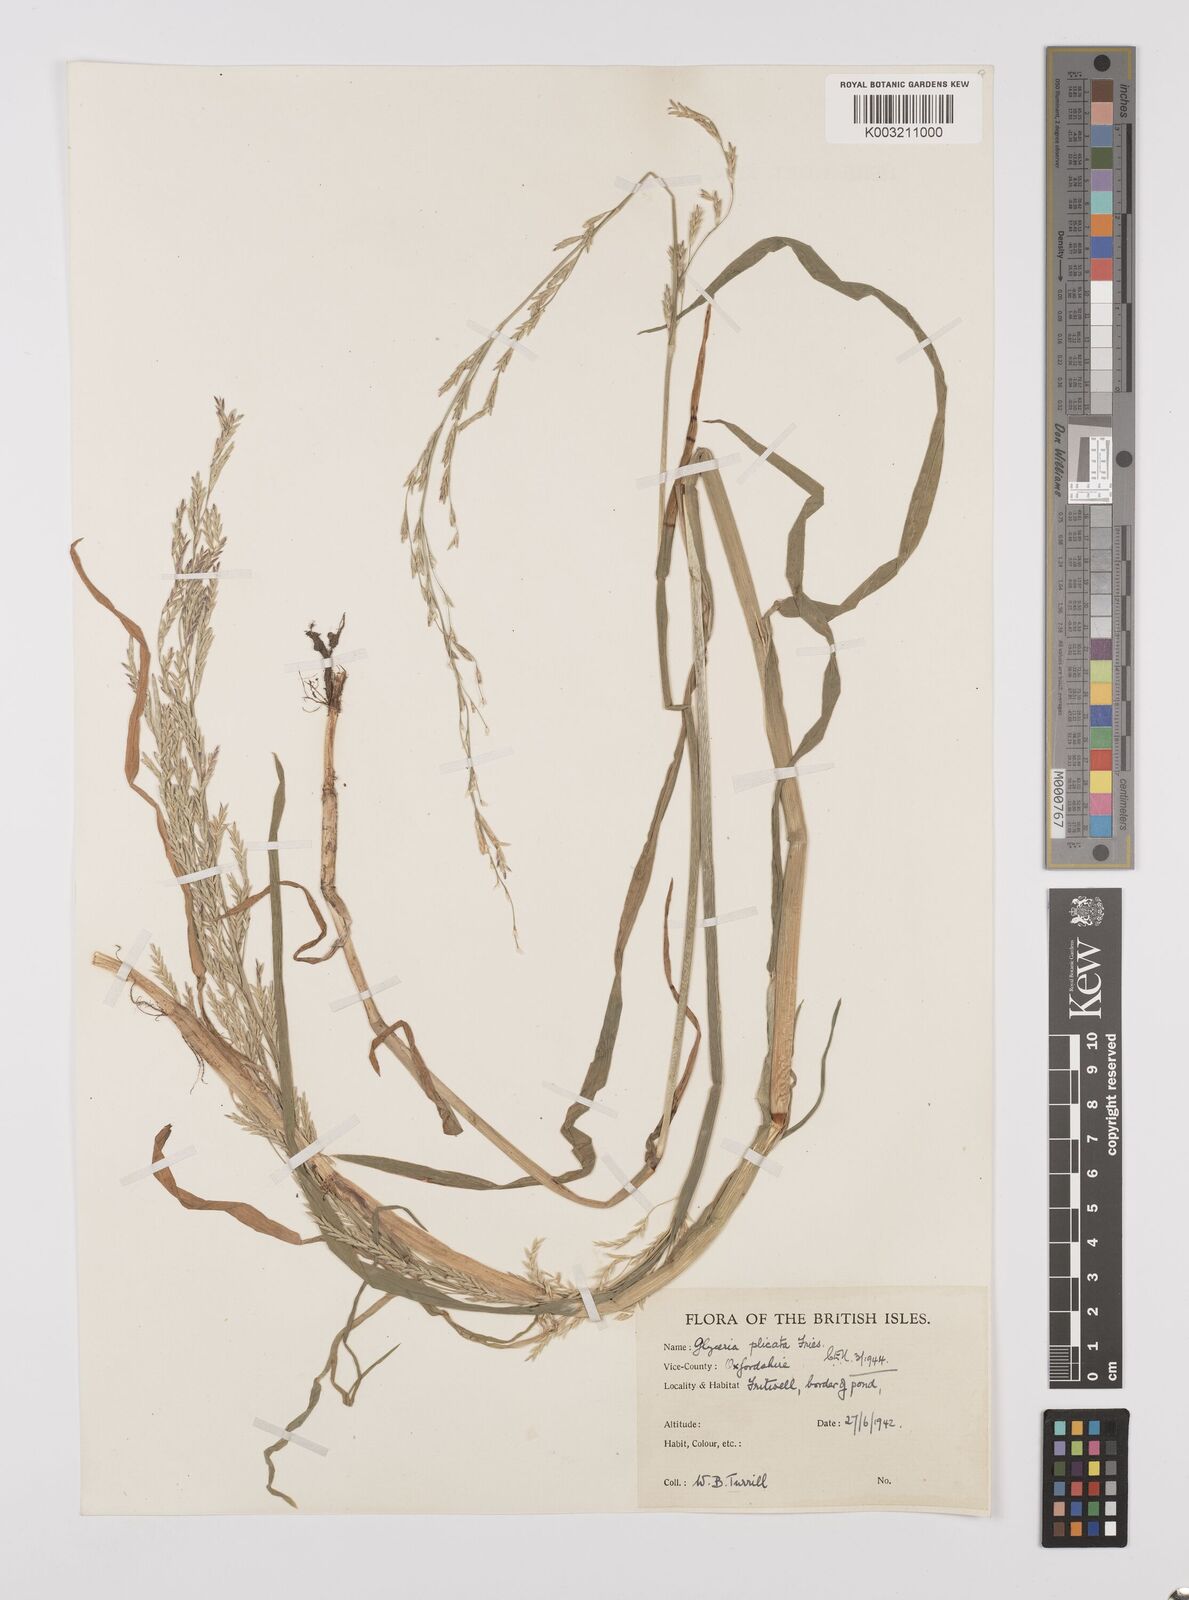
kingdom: Plantae
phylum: Tracheophyta
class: Liliopsida
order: Poales
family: Poaceae
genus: Glyceria
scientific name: Glyceria notata
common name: Plicate sweet-grass
